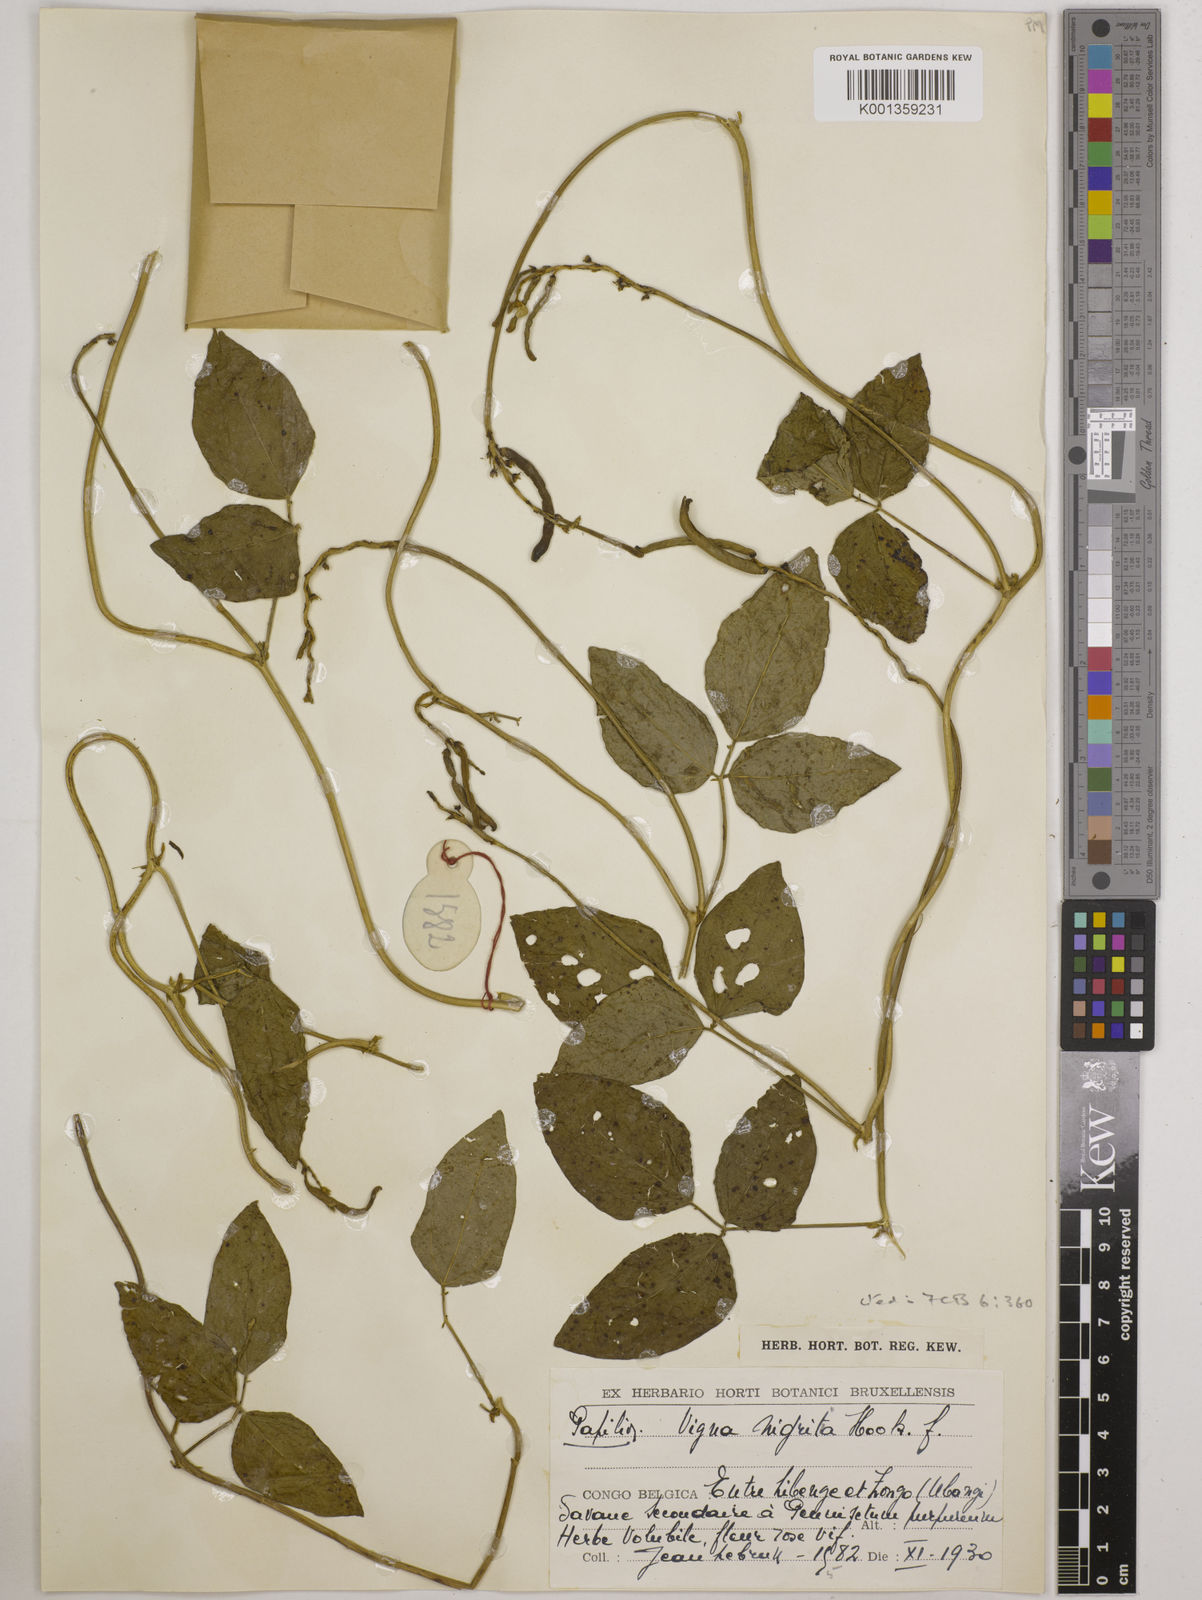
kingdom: Plantae
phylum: Tracheophyta
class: Magnoliopsida
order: Fabales
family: Fabaceae
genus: Vigna
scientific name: Vigna nigritia
